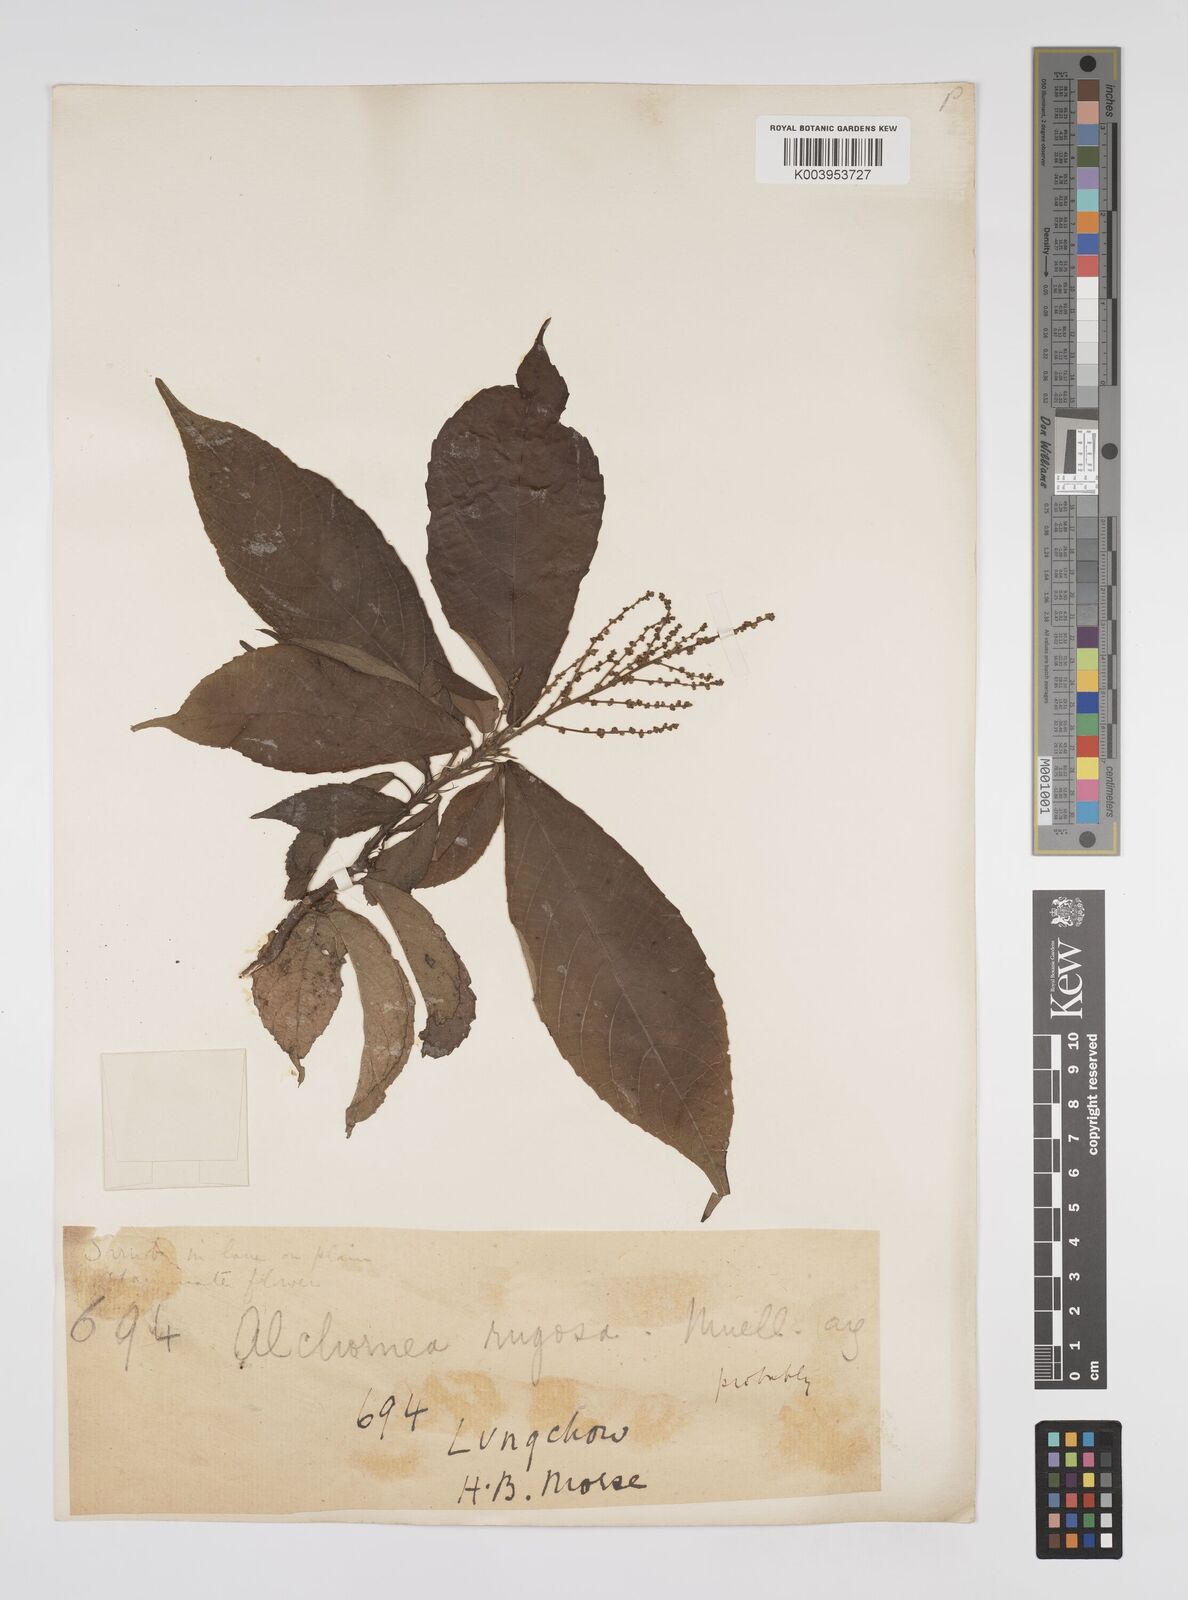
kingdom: Plantae
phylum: Tracheophyta
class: Magnoliopsida
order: Malpighiales
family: Euphorbiaceae
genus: Alchornea
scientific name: Alchornea rugosa
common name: Alchorntree
